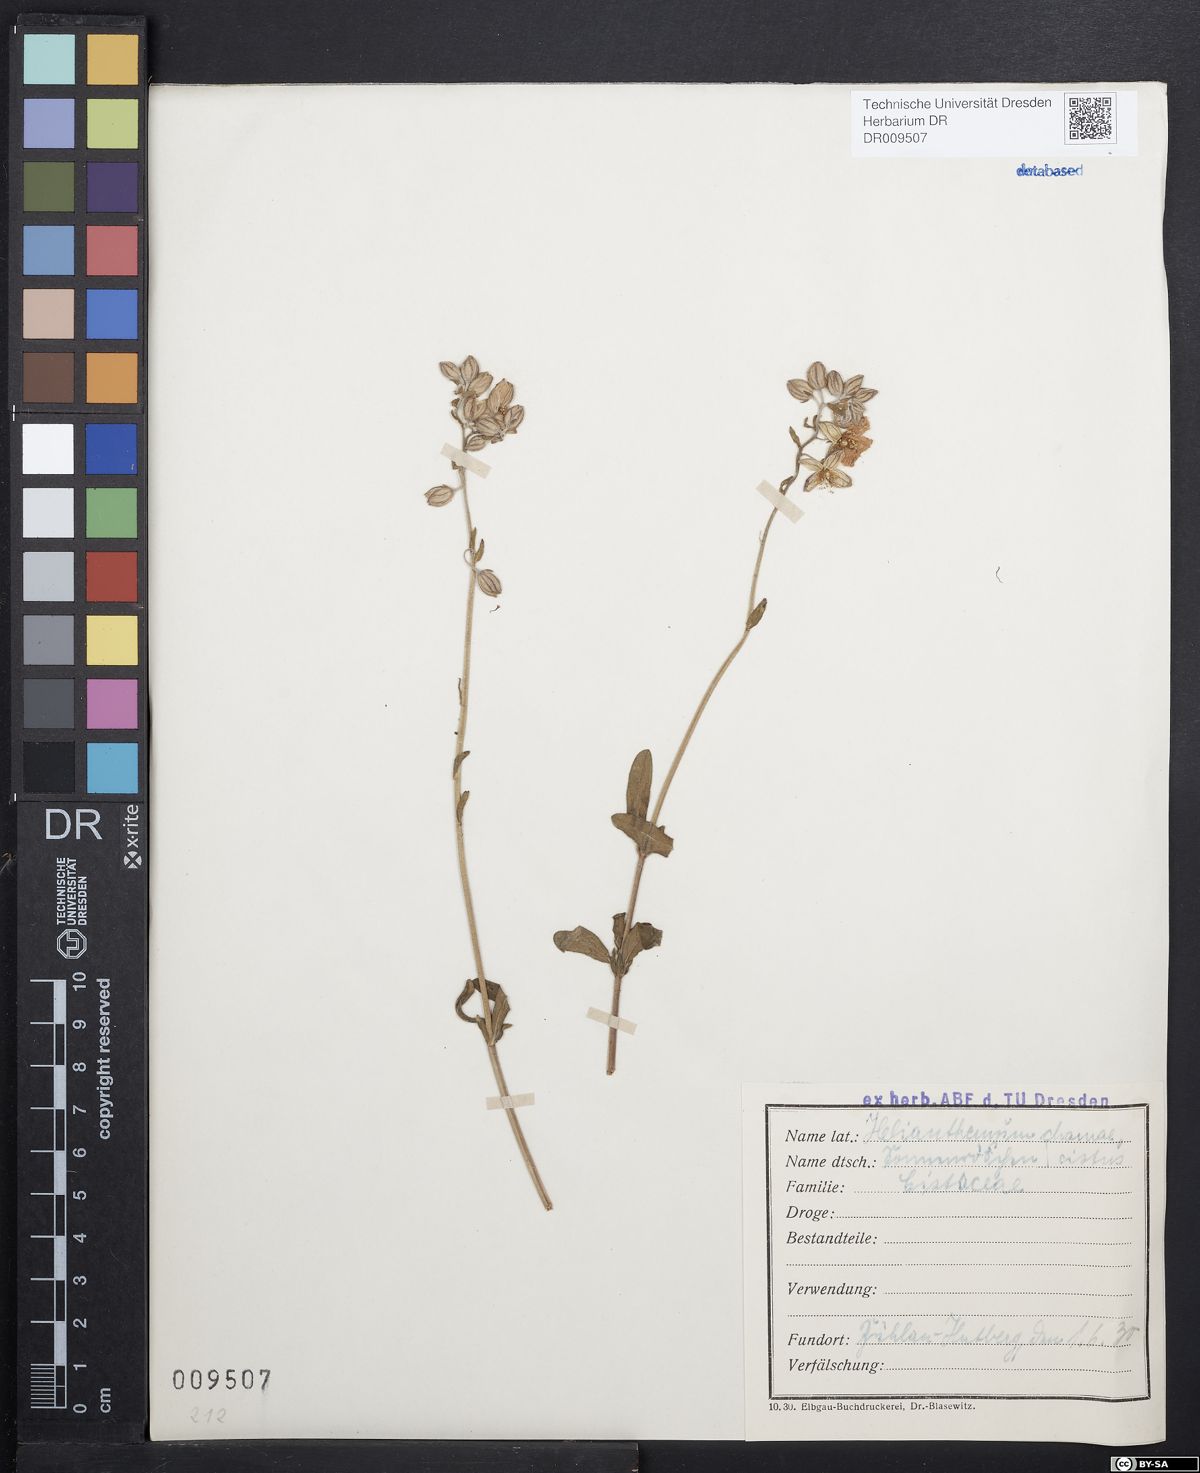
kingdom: Plantae
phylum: Tracheophyta
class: Magnoliopsida
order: Malvales
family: Cistaceae
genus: Helianthemum
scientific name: Helianthemum nummularium
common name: Common rock-rose
